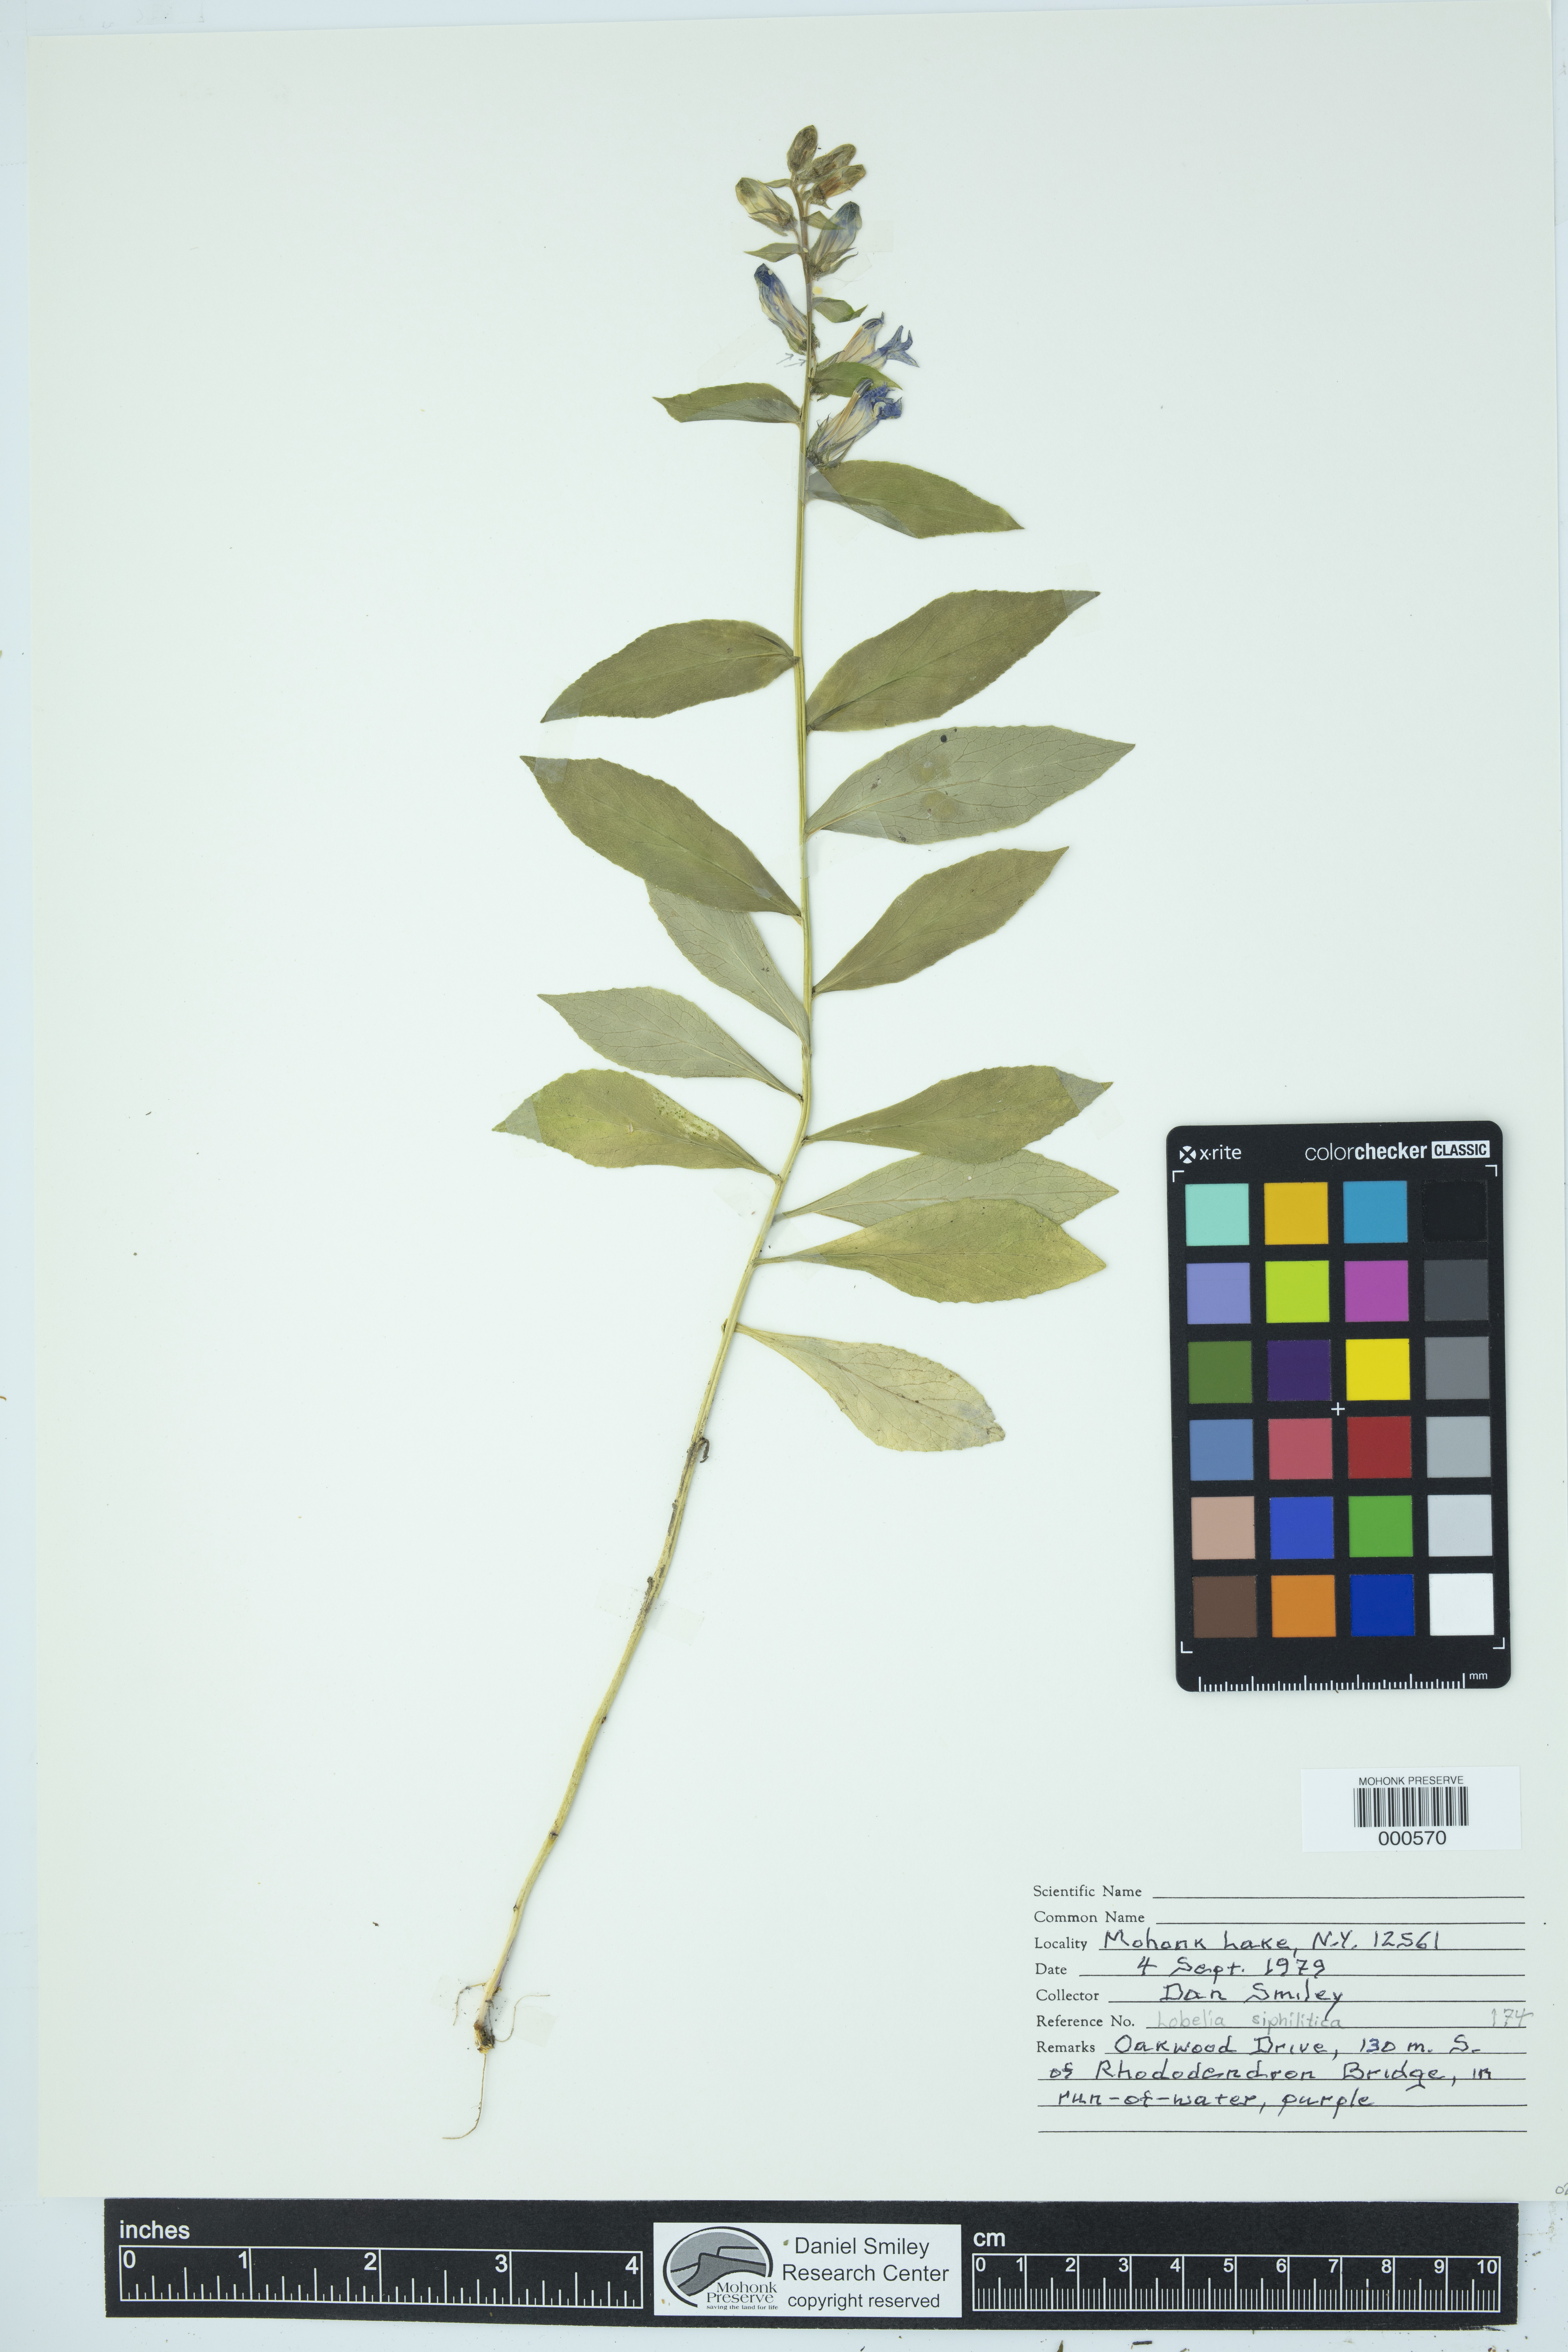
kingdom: Plantae
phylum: Tracheophyta
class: Magnoliopsida
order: Asterales
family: Campanulaceae
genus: Lobelia
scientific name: Lobelia siphilitica
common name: Great lobelia
